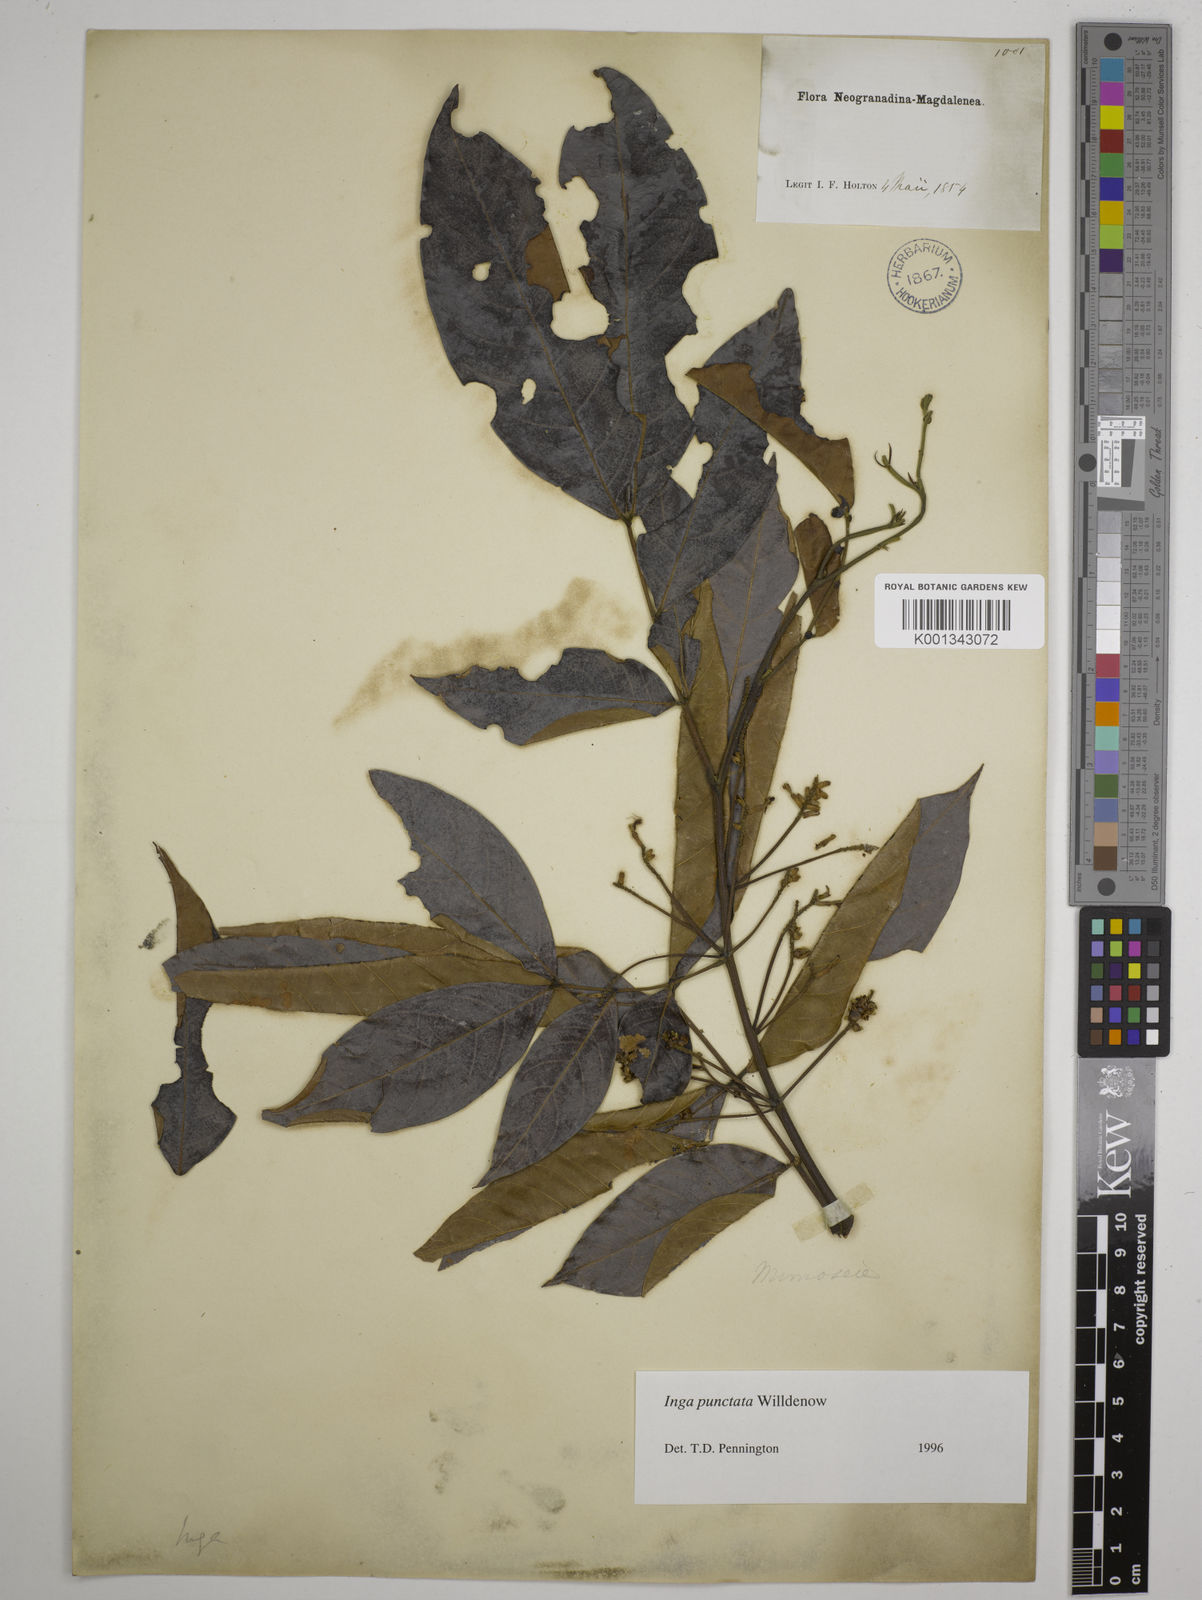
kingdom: Plantae
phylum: Tracheophyta
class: Magnoliopsida
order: Fabales
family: Fabaceae
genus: Inga
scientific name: Inga punctata
